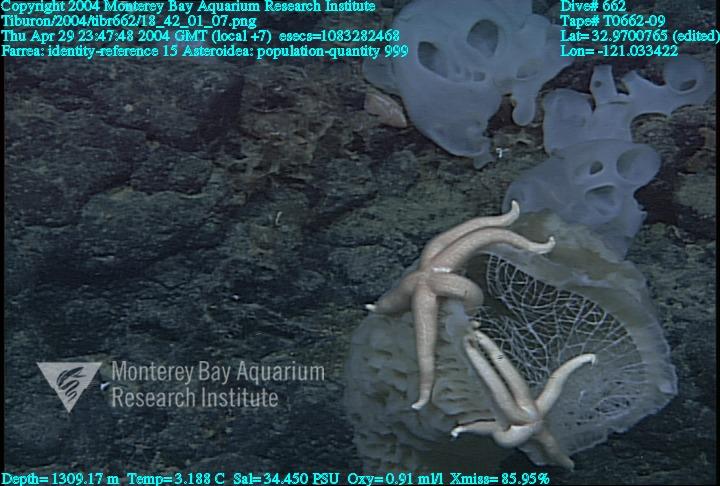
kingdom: Animalia
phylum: Porifera
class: Hexactinellida
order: Sceptrulophora
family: Farreidae
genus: Farrea
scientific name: Farrea
